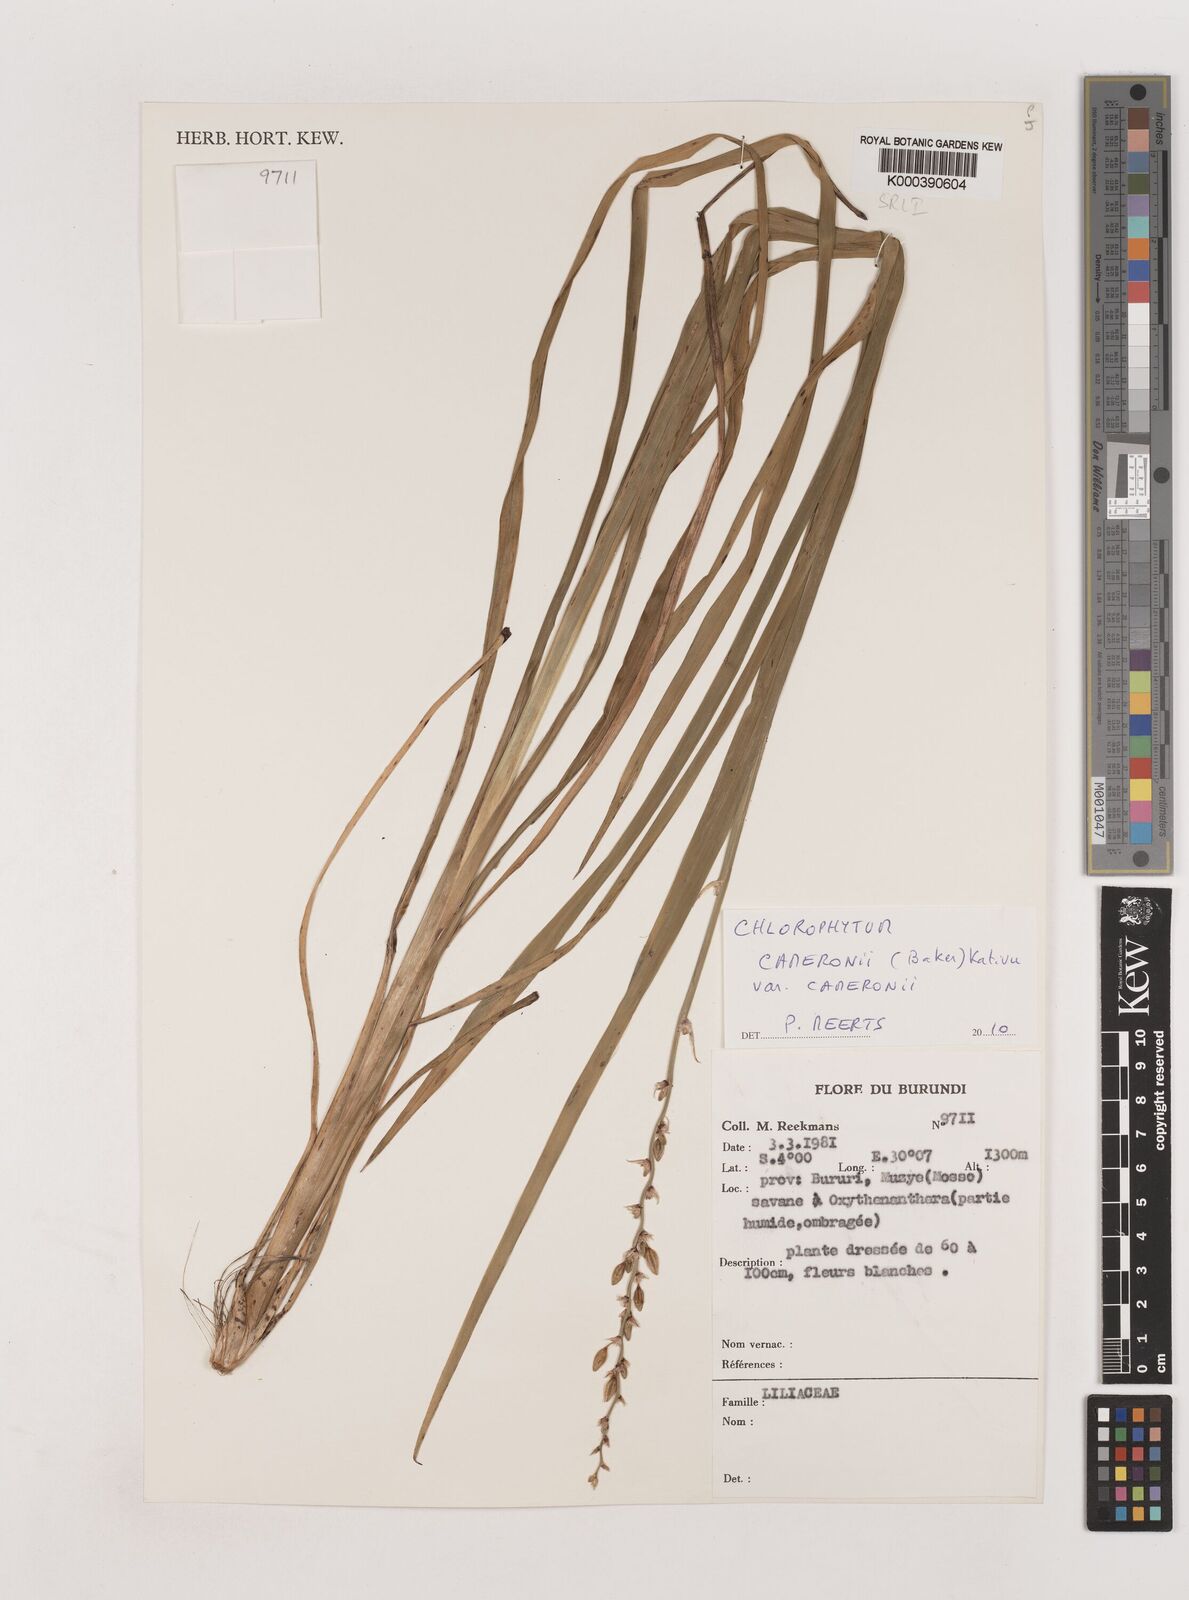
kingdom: Plantae
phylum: Tracheophyta
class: Liliopsida
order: Asparagales
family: Asparagaceae
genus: Chlorophytum
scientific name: Chlorophytum limosum
